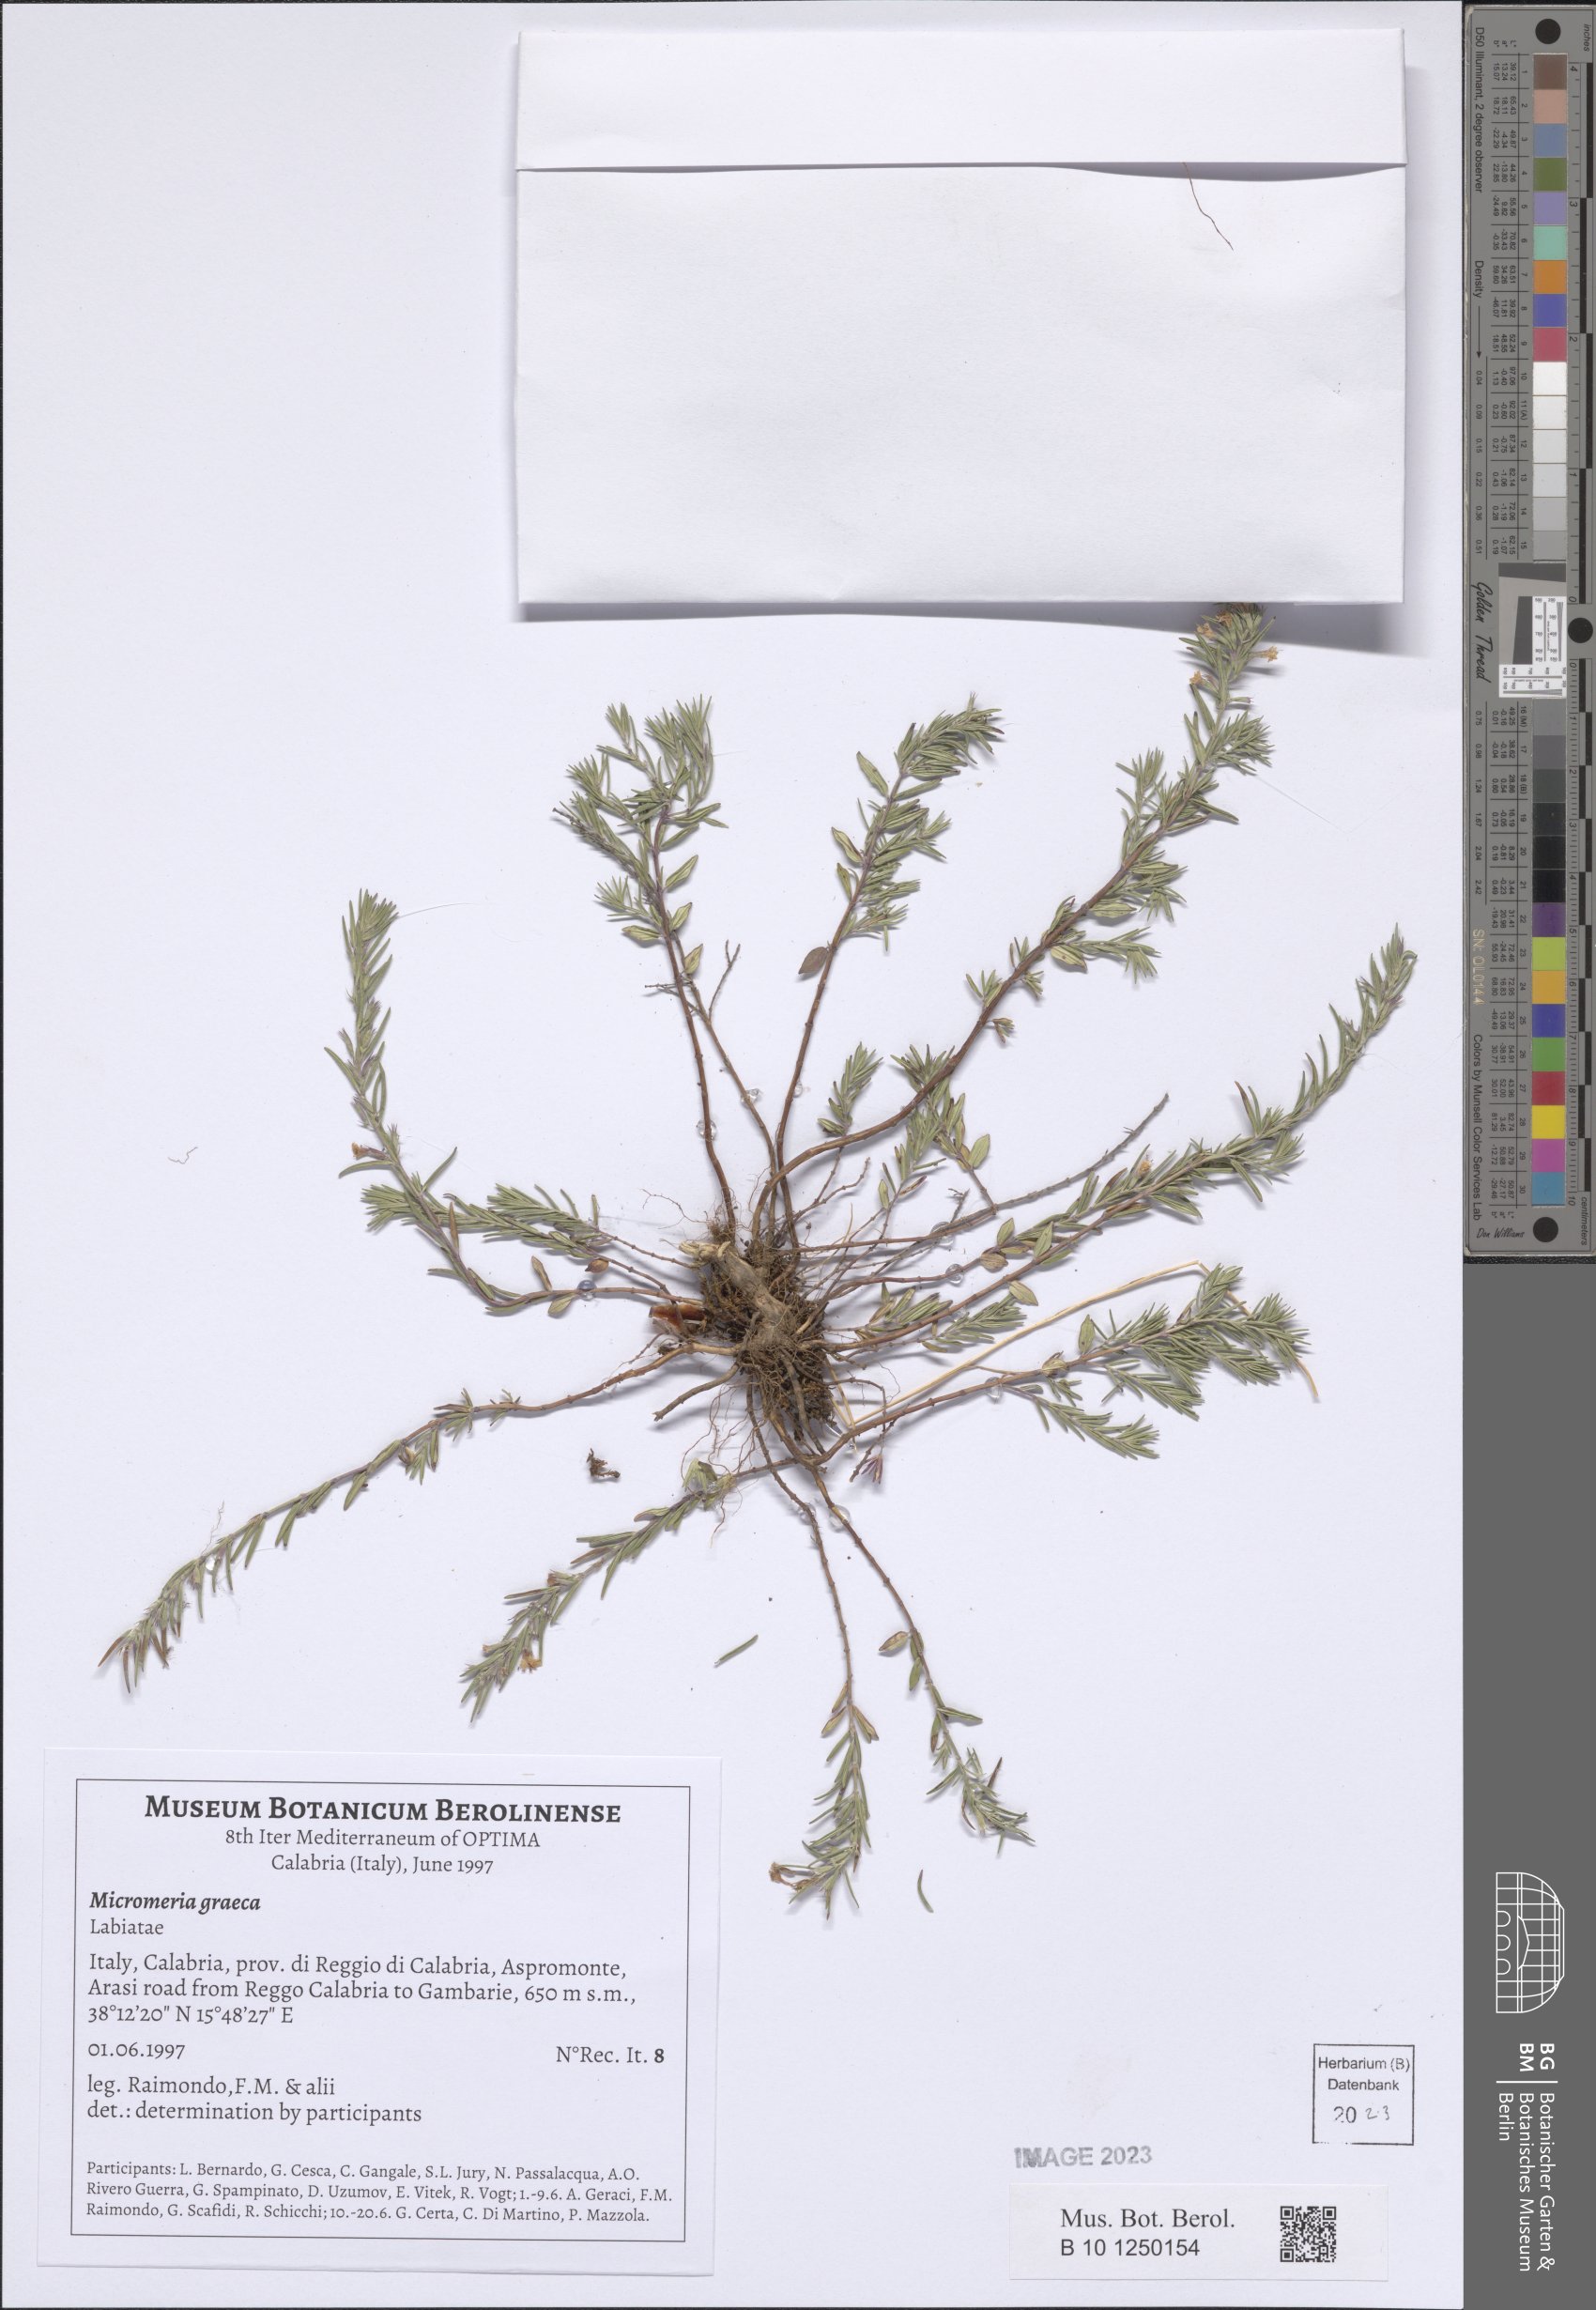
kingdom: Plantae
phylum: Tracheophyta
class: Magnoliopsida
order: Lamiales
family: Lamiaceae
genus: Micromeria
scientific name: Micromeria graeca
